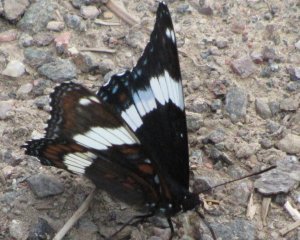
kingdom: Animalia
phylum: Arthropoda
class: Insecta
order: Lepidoptera
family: Nymphalidae
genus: Limenitis
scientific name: Limenitis arthemis
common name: Red-spotted Admiral
